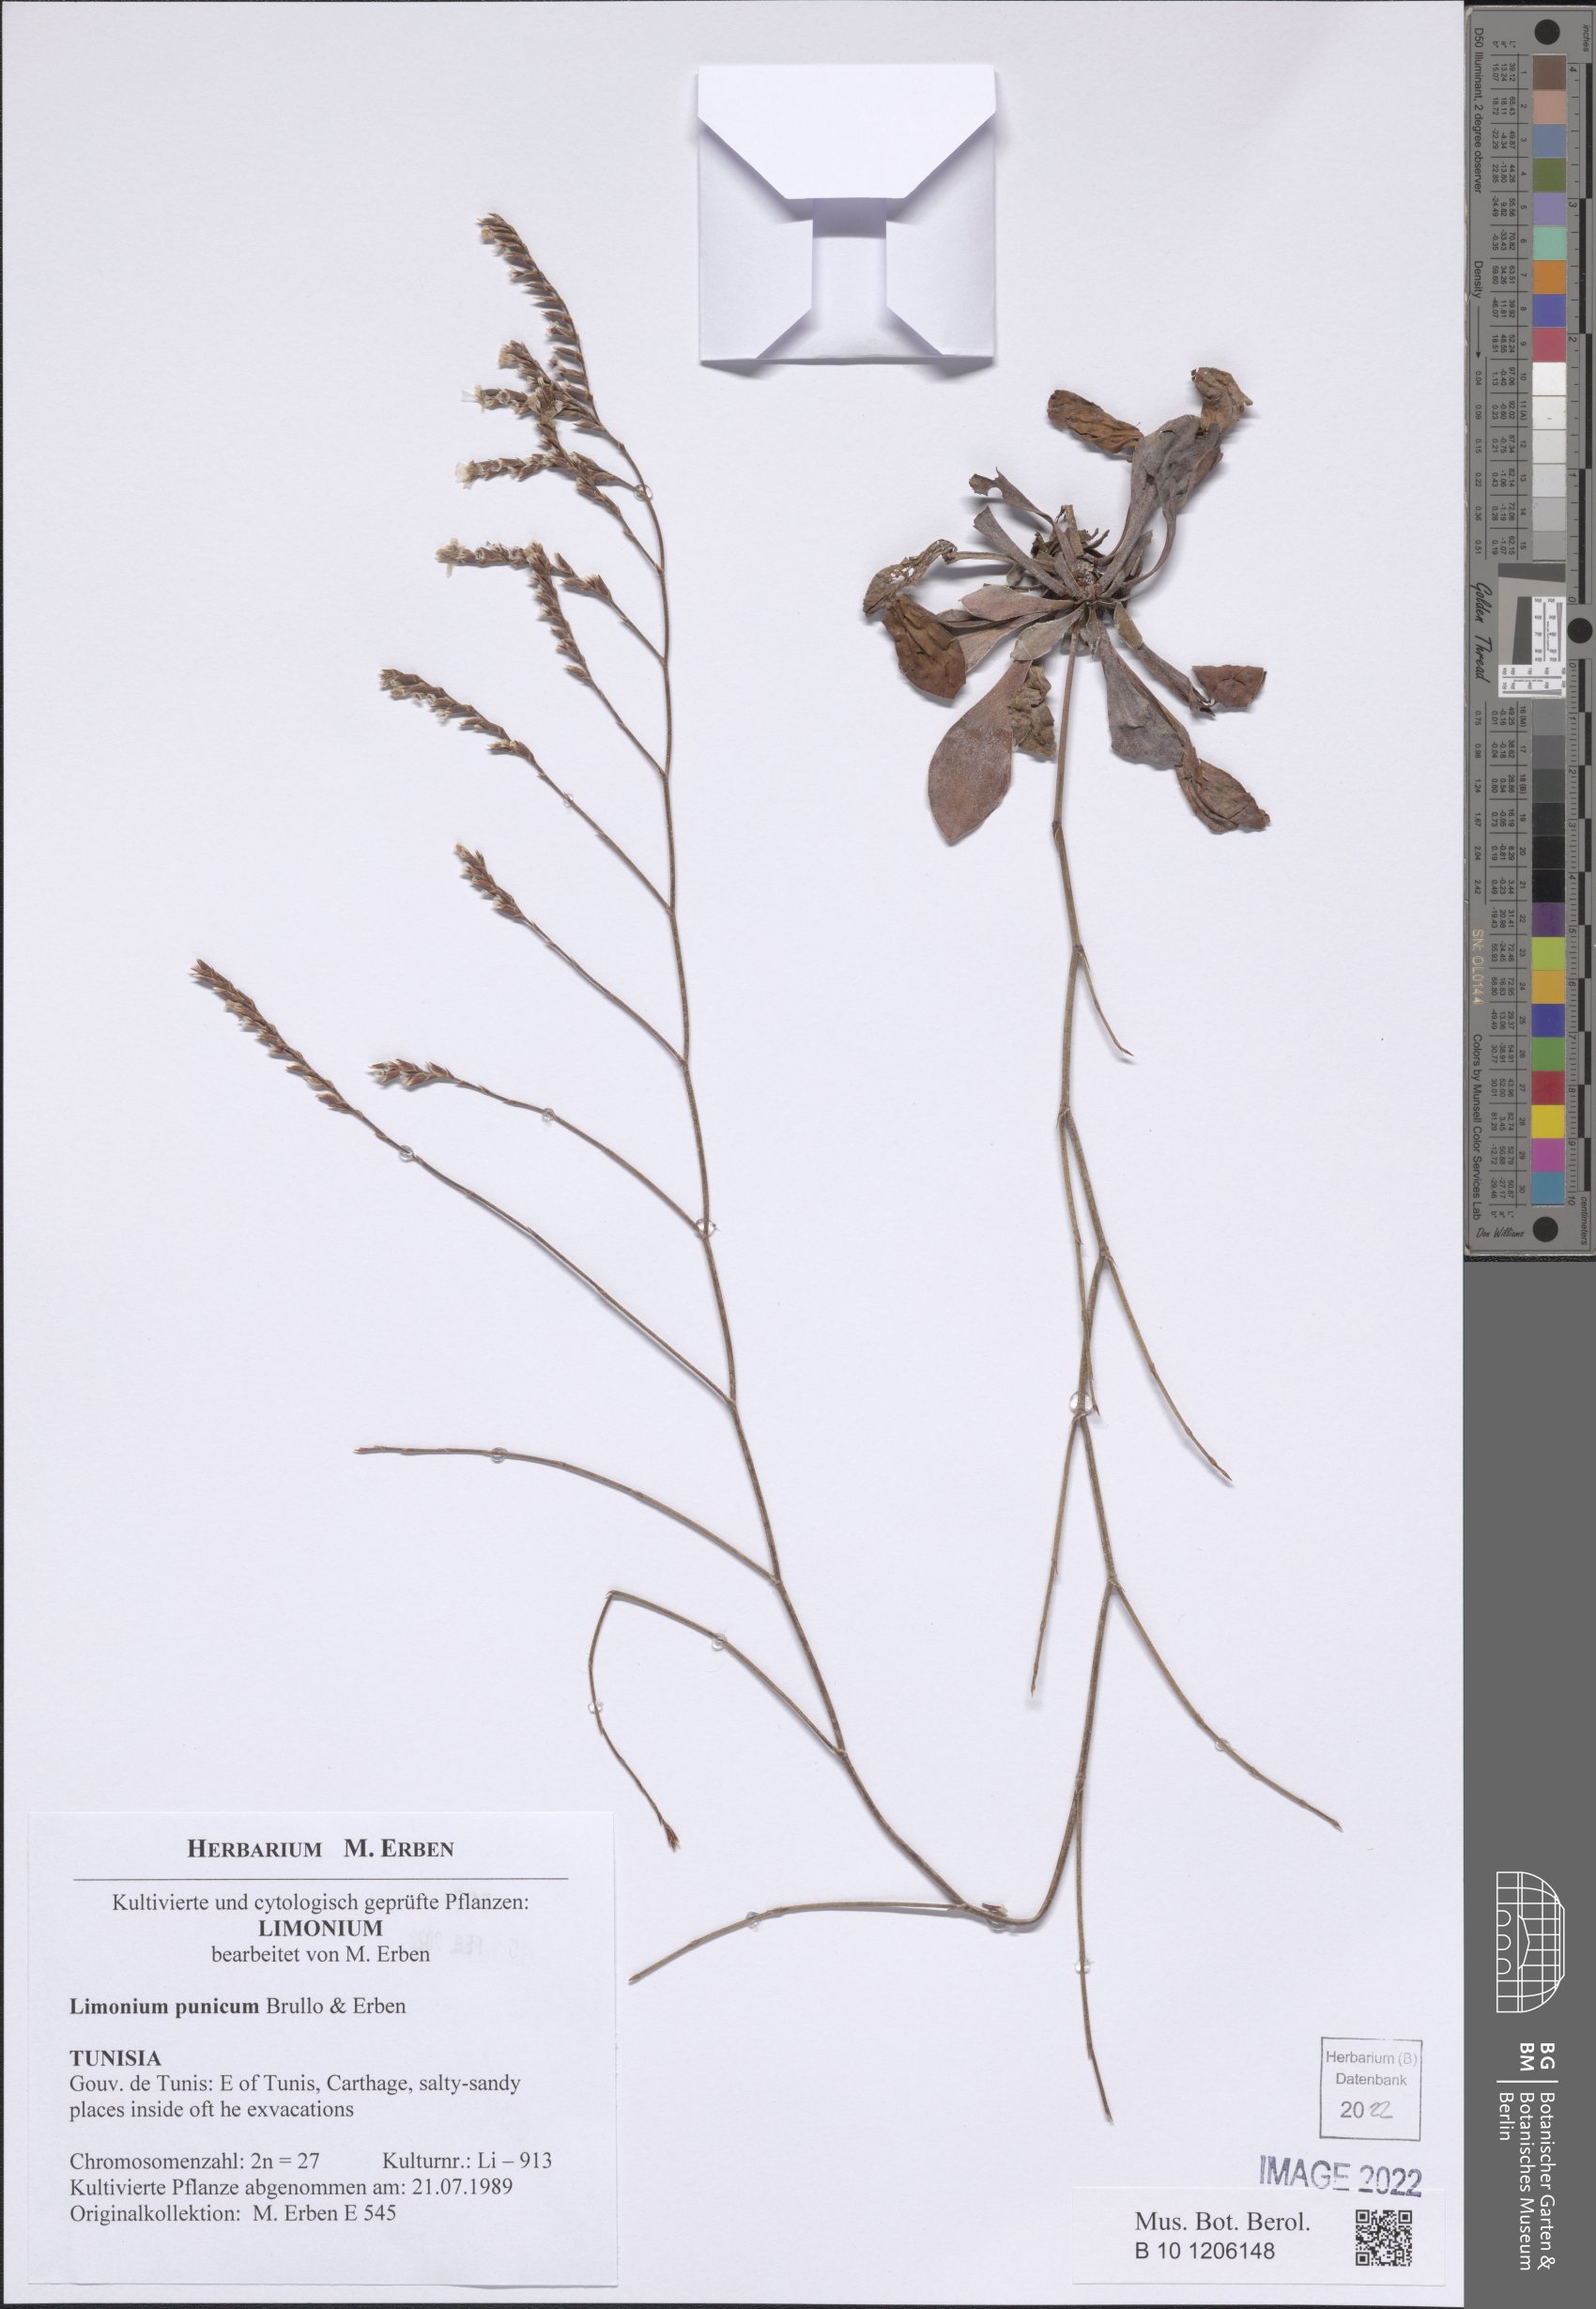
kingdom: Plantae
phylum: Tracheophyta
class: Magnoliopsida
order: Caryophyllales
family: Plumbaginaceae
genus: Limonium
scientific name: Limonium punicum
